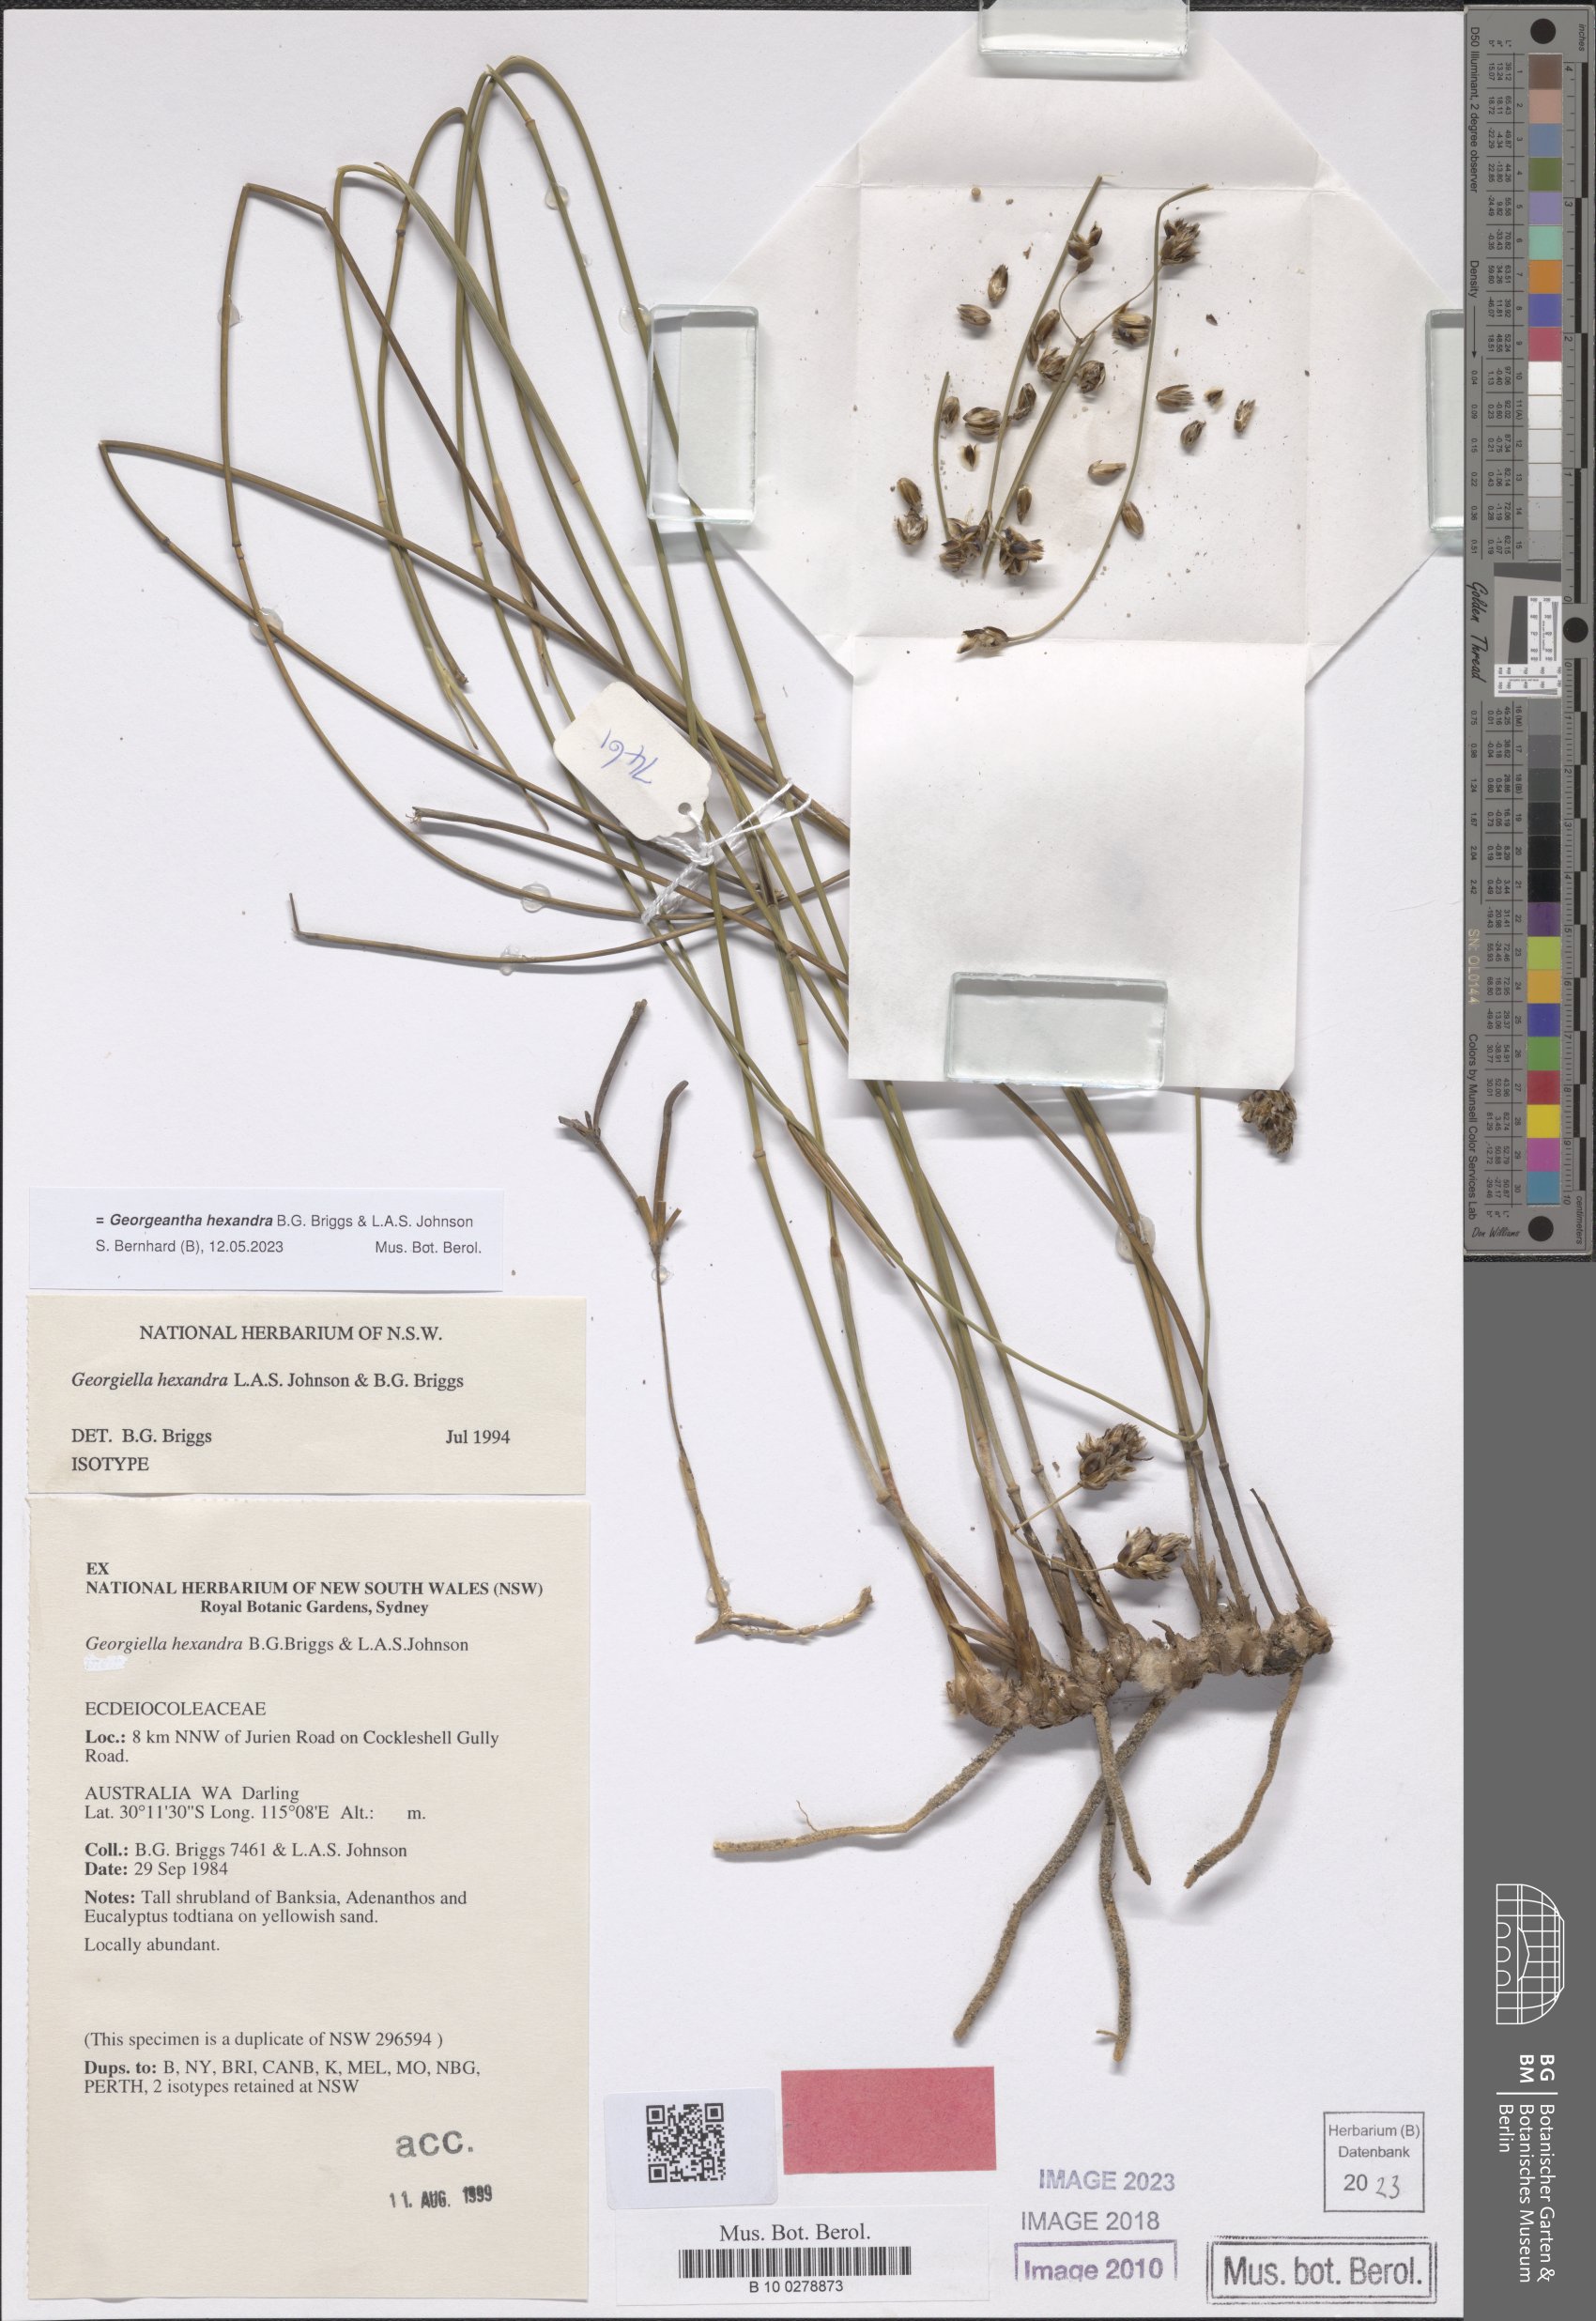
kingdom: Plantae
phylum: Tracheophyta
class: Liliopsida
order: Poales
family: Ecdeiocoleaceae
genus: Georgeantha
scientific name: Georgeantha hexandra
